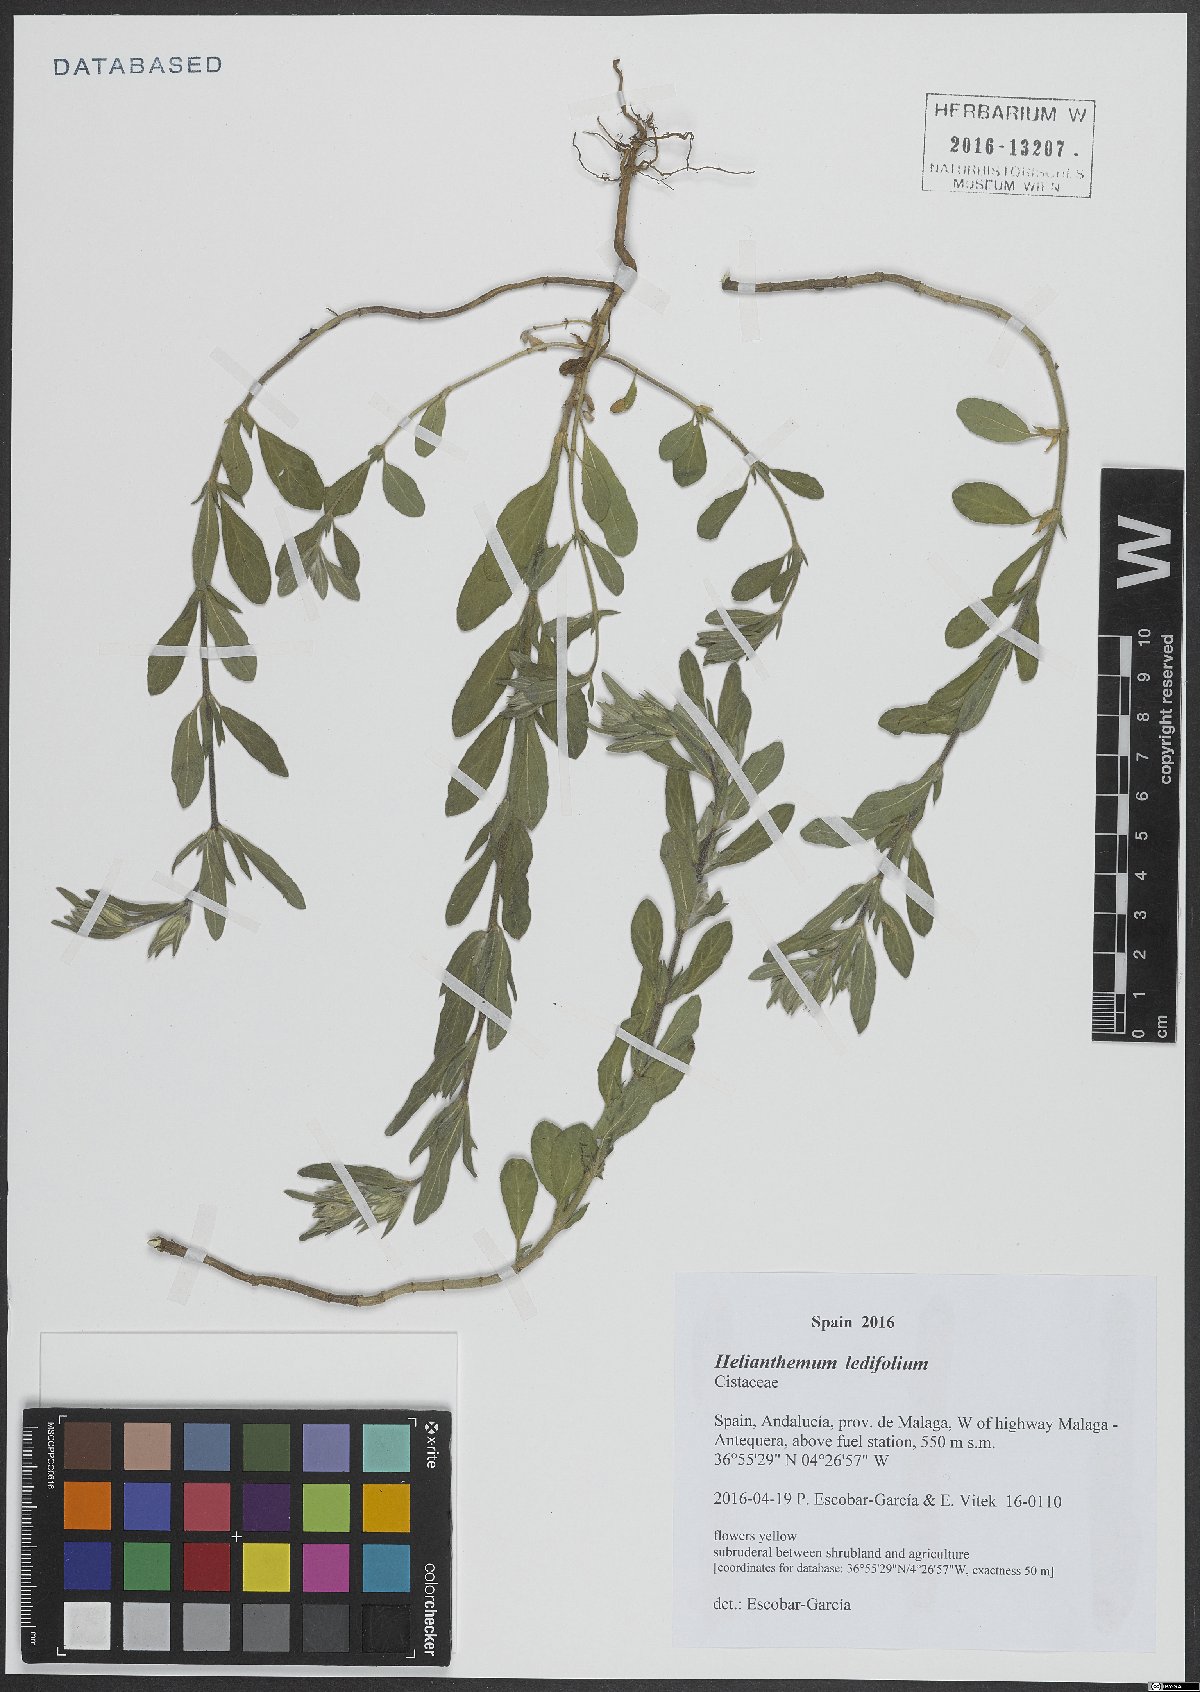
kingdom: Plantae
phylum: Tracheophyta
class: Magnoliopsida
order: Malvales
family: Cistaceae
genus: Helianthemum
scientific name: Helianthemum ledifolium
